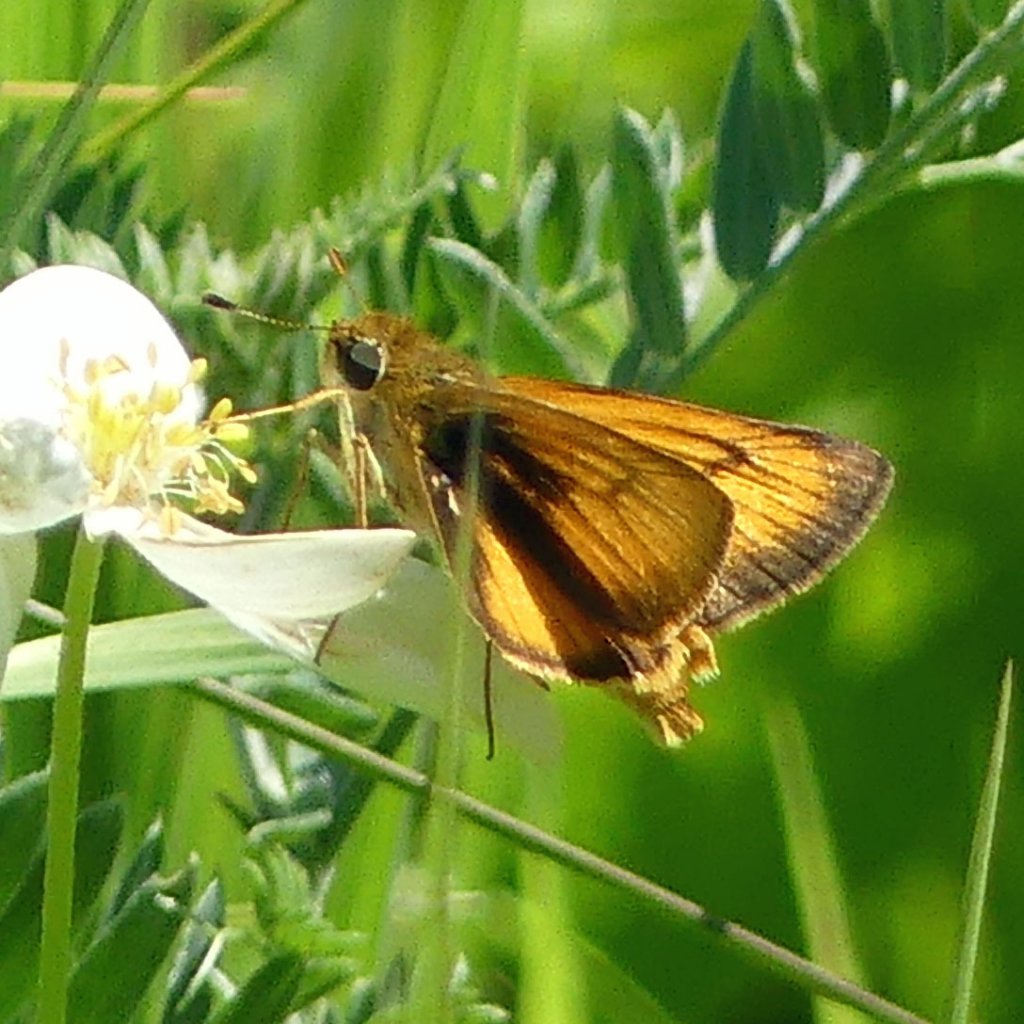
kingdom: Animalia
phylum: Arthropoda
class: Insecta
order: Lepidoptera
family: Hesperiidae
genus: Atrytone
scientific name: Atrytone delaware
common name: Delaware Skipper
